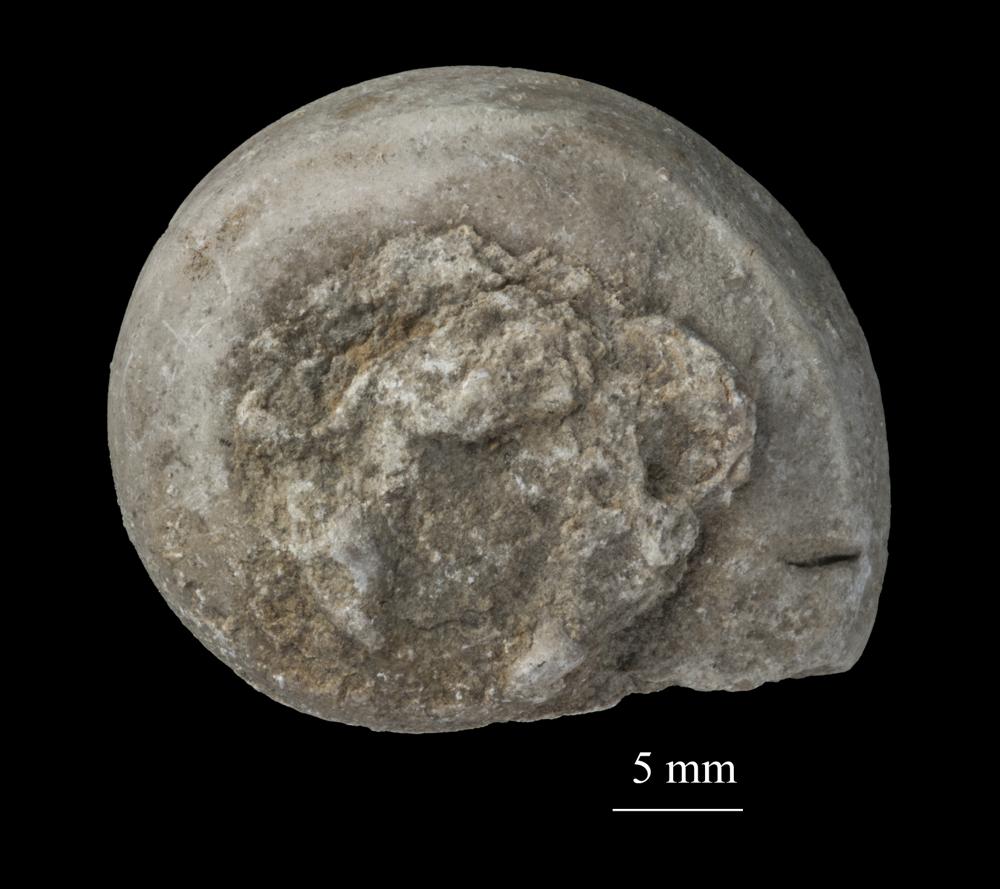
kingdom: Animalia
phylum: Mollusca
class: Gastropoda
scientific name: Gastropoda
